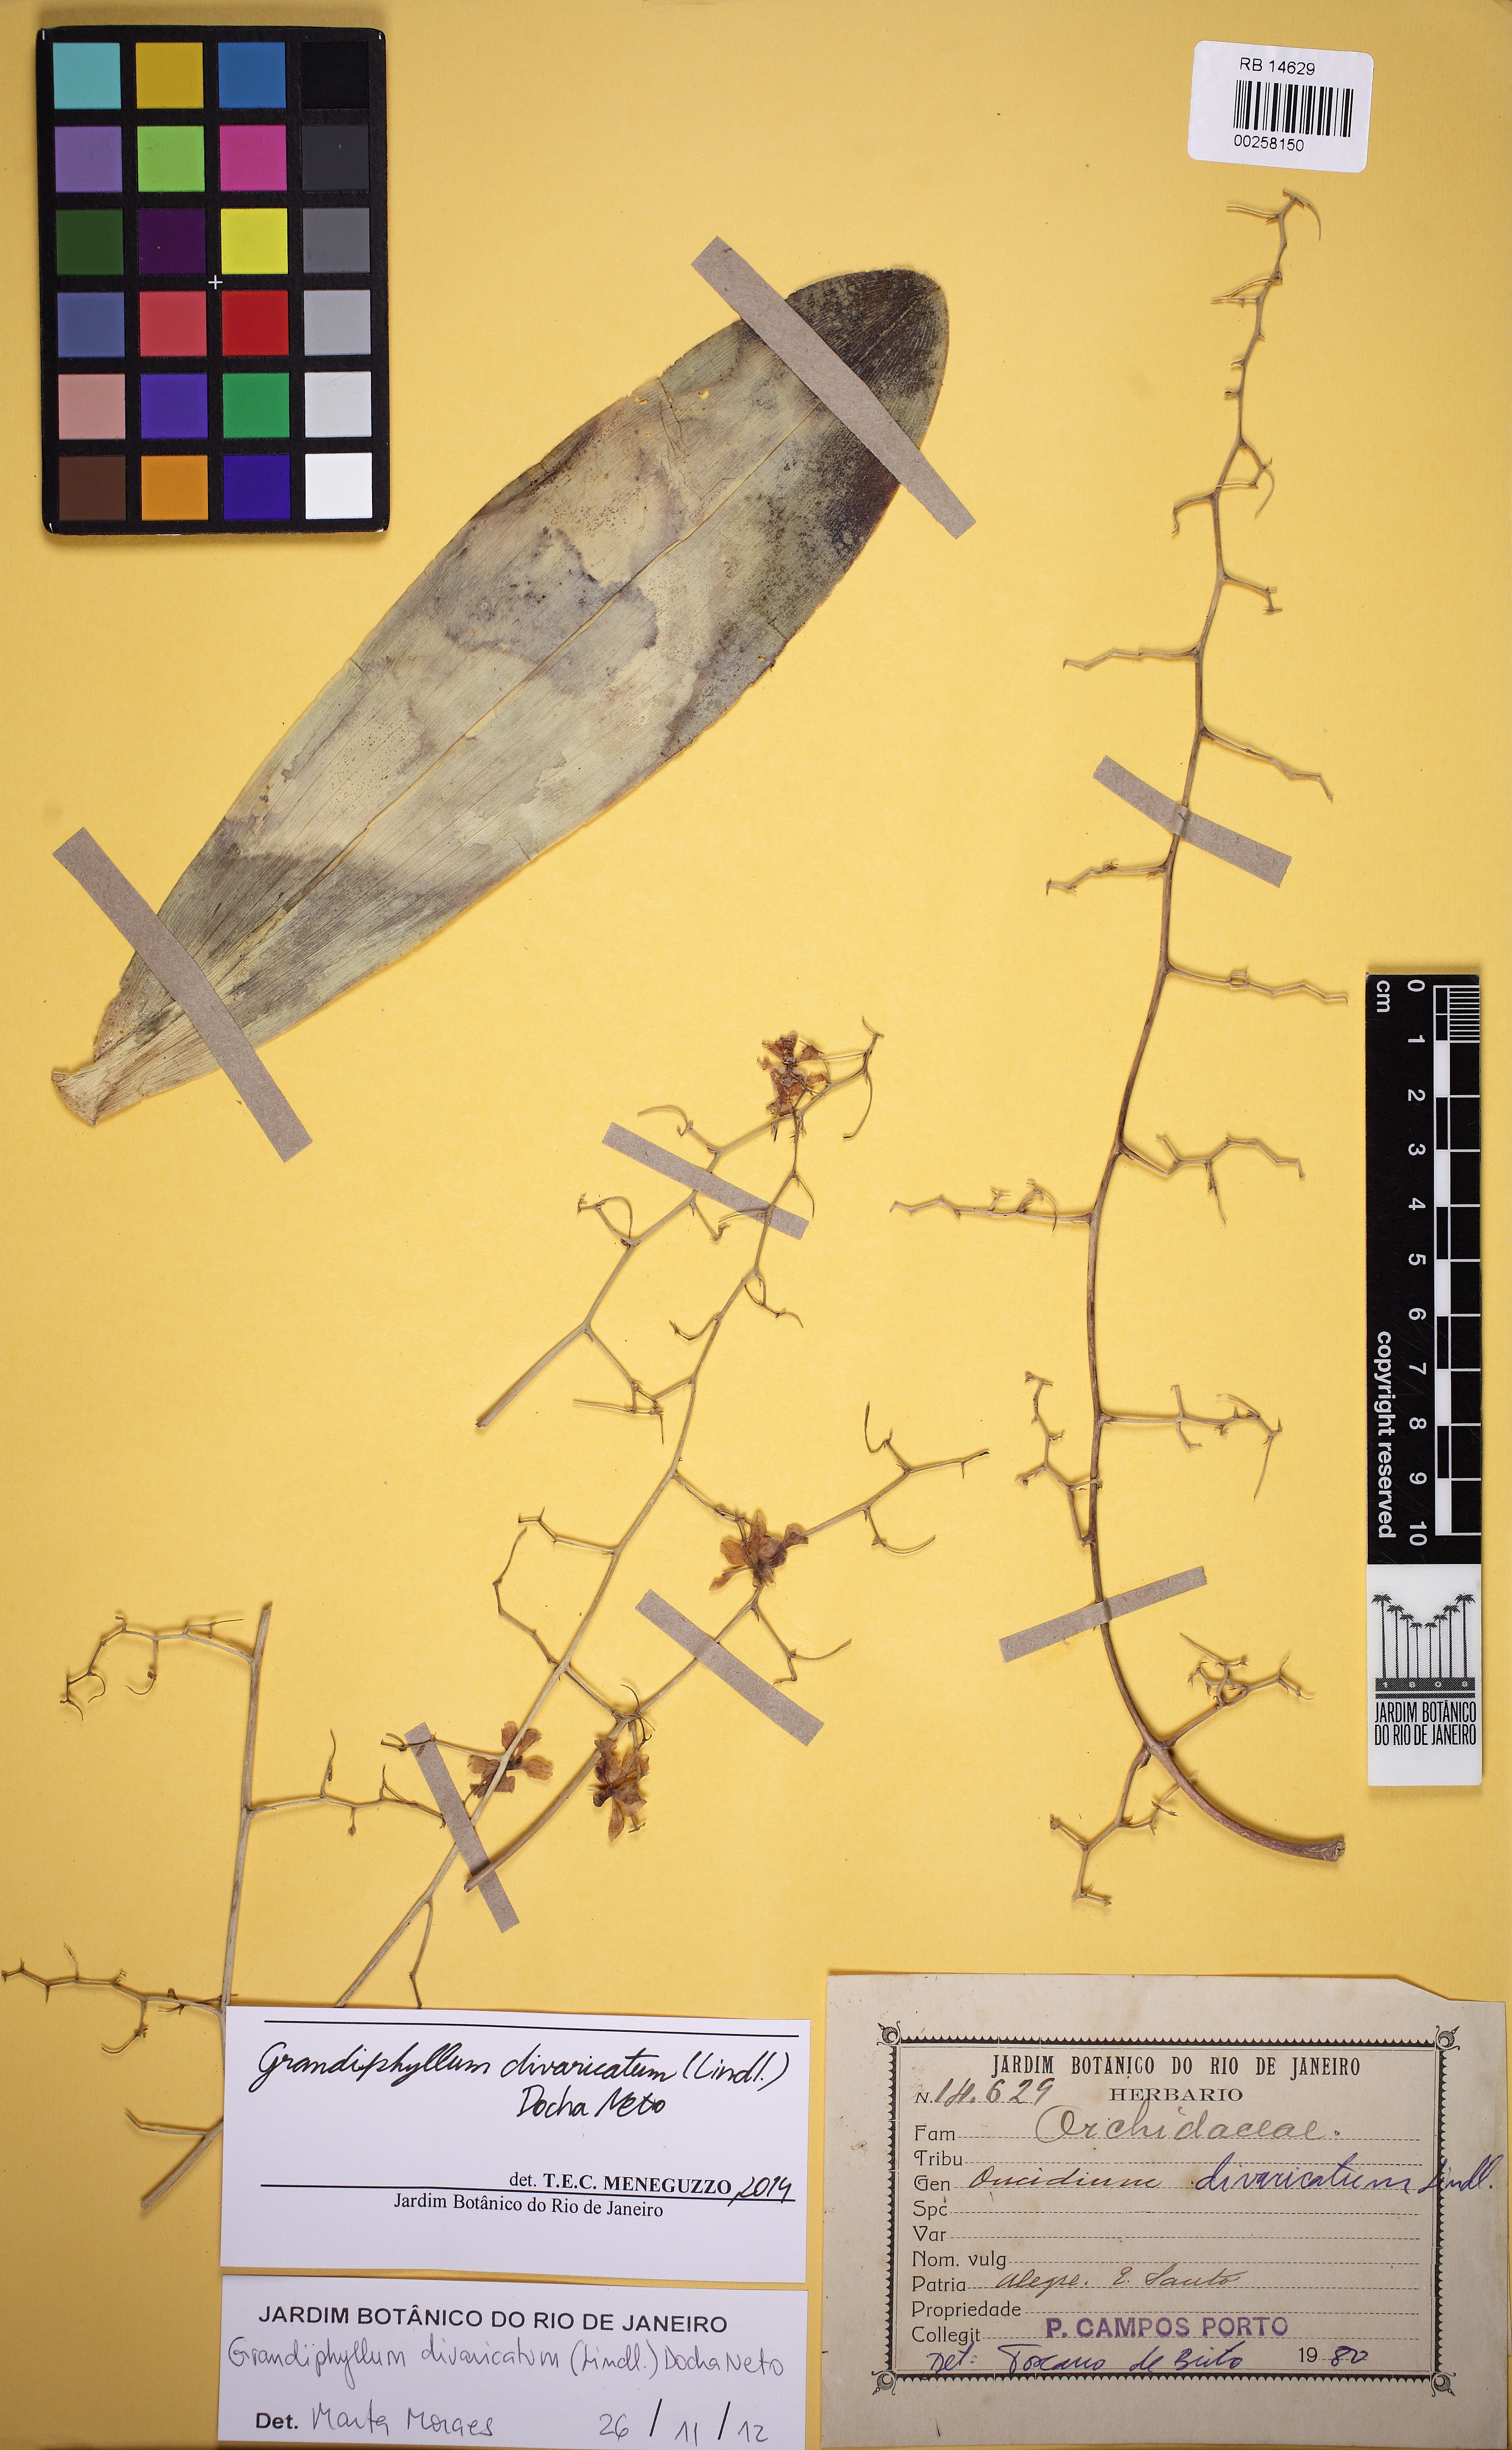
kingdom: Plantae
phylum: Tracheophyta
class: Liliopsida
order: Asparagales
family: Orchidaceae
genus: Grandiphyllum
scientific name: Grandiphyllum divaricatum
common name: Mule-ear orchid
